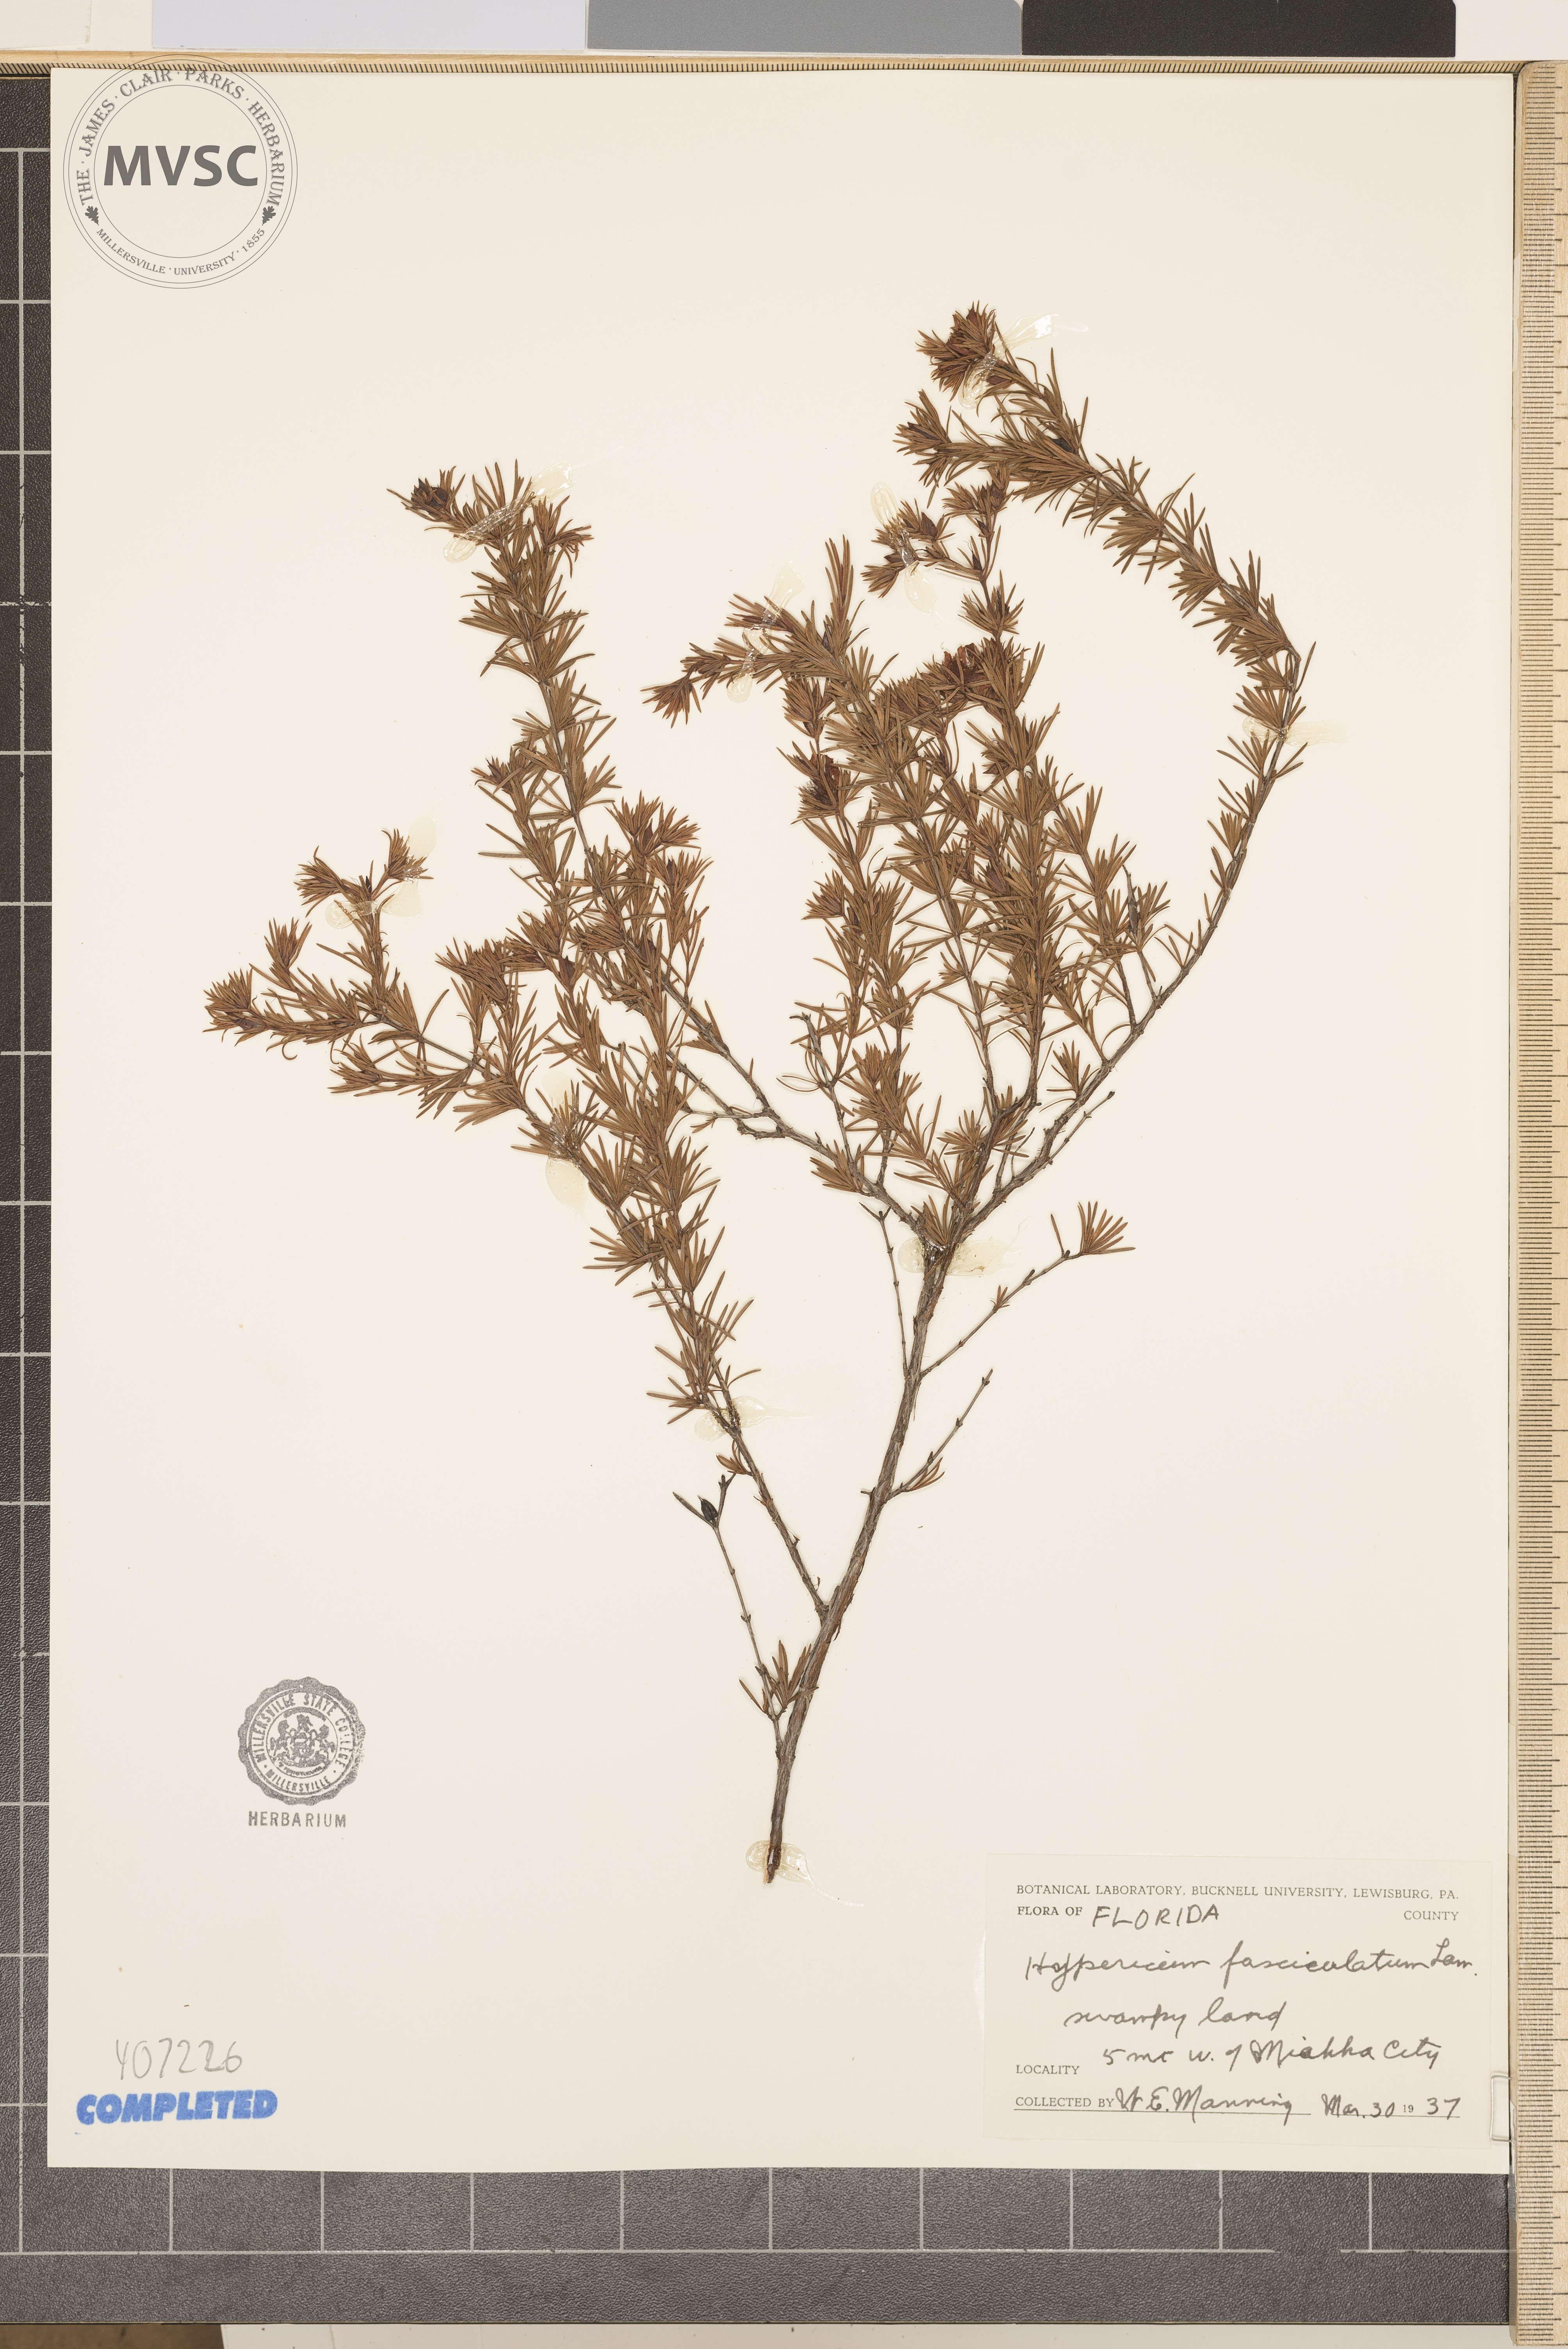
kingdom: Plantae
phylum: Tracheophyta
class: Magnoliopsida
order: Malpighiales
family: Hypericaceae
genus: Hypericum
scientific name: Hypericum fasciculatum
